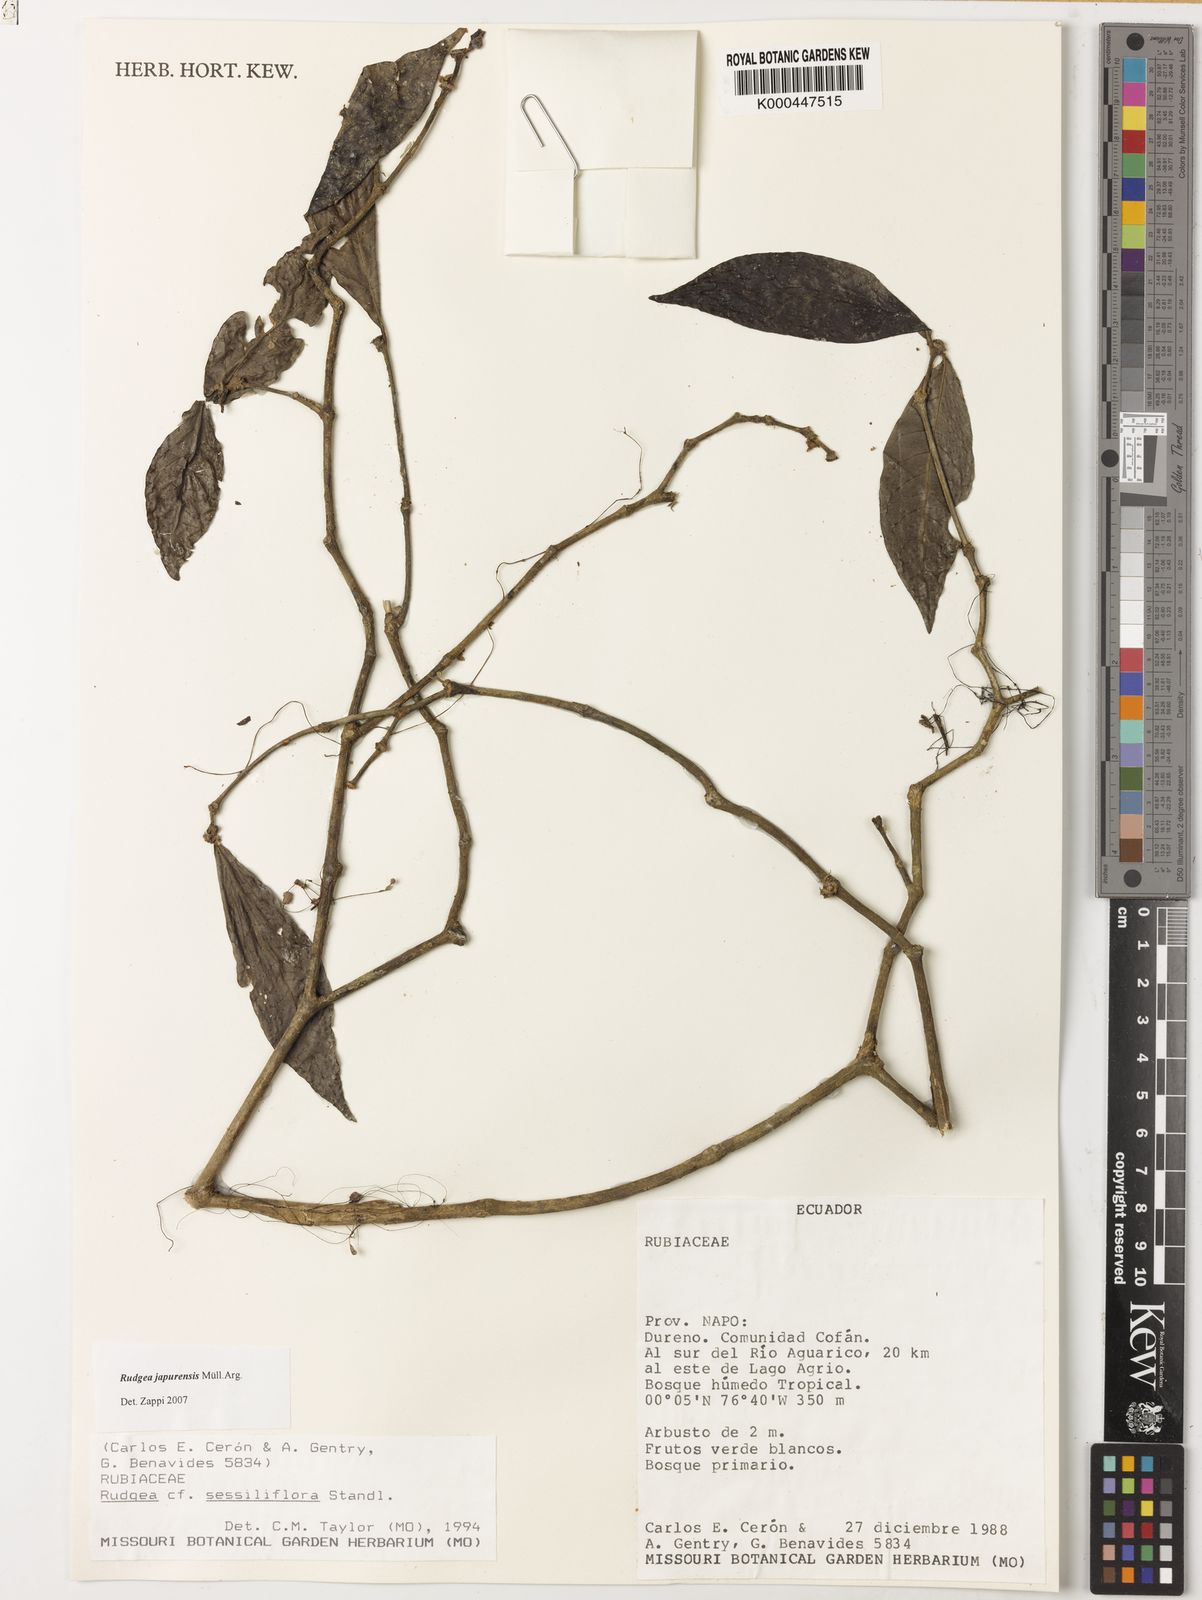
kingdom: Plantae
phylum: Tracheophyta
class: Magnoliopsida
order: Gentianales
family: Rubiaceae
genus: Rudgea
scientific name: Rudgea panurensis
